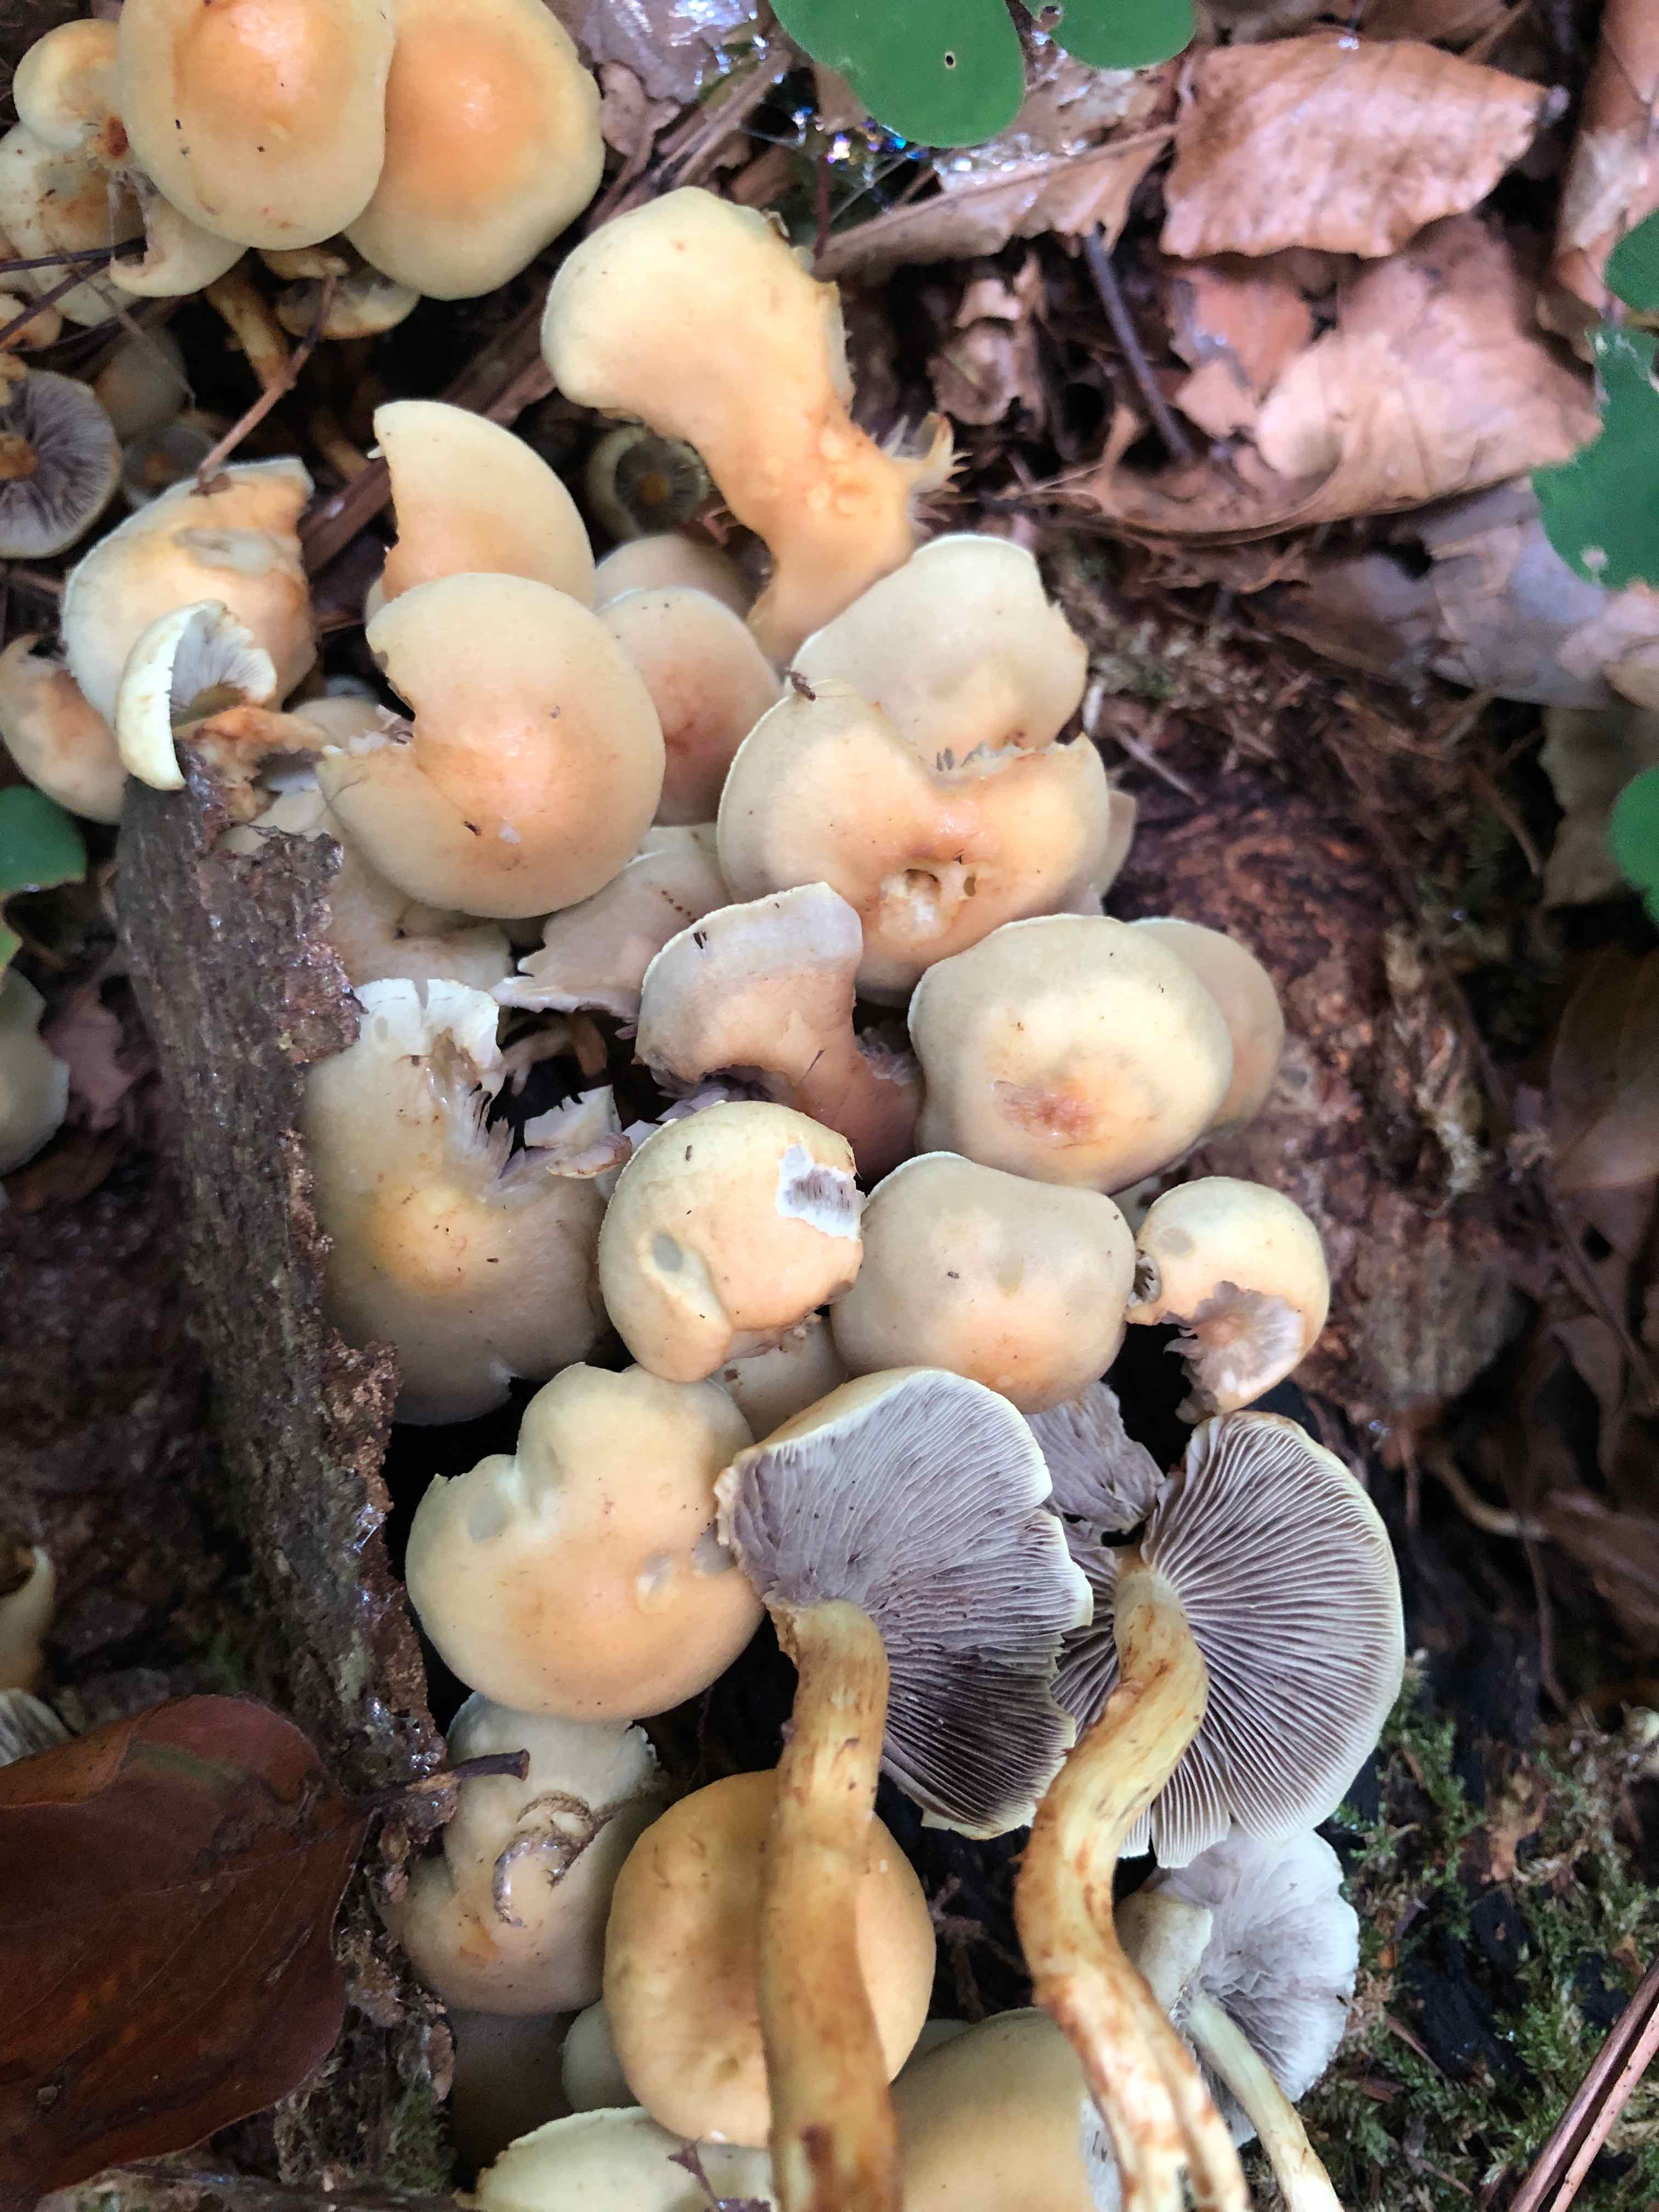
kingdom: Fungi
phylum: Basidiomycota
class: Agaricomycetes
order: Agaricales
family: Strophariaceae
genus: Hypholoma
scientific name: Hypholoma fasciculare
